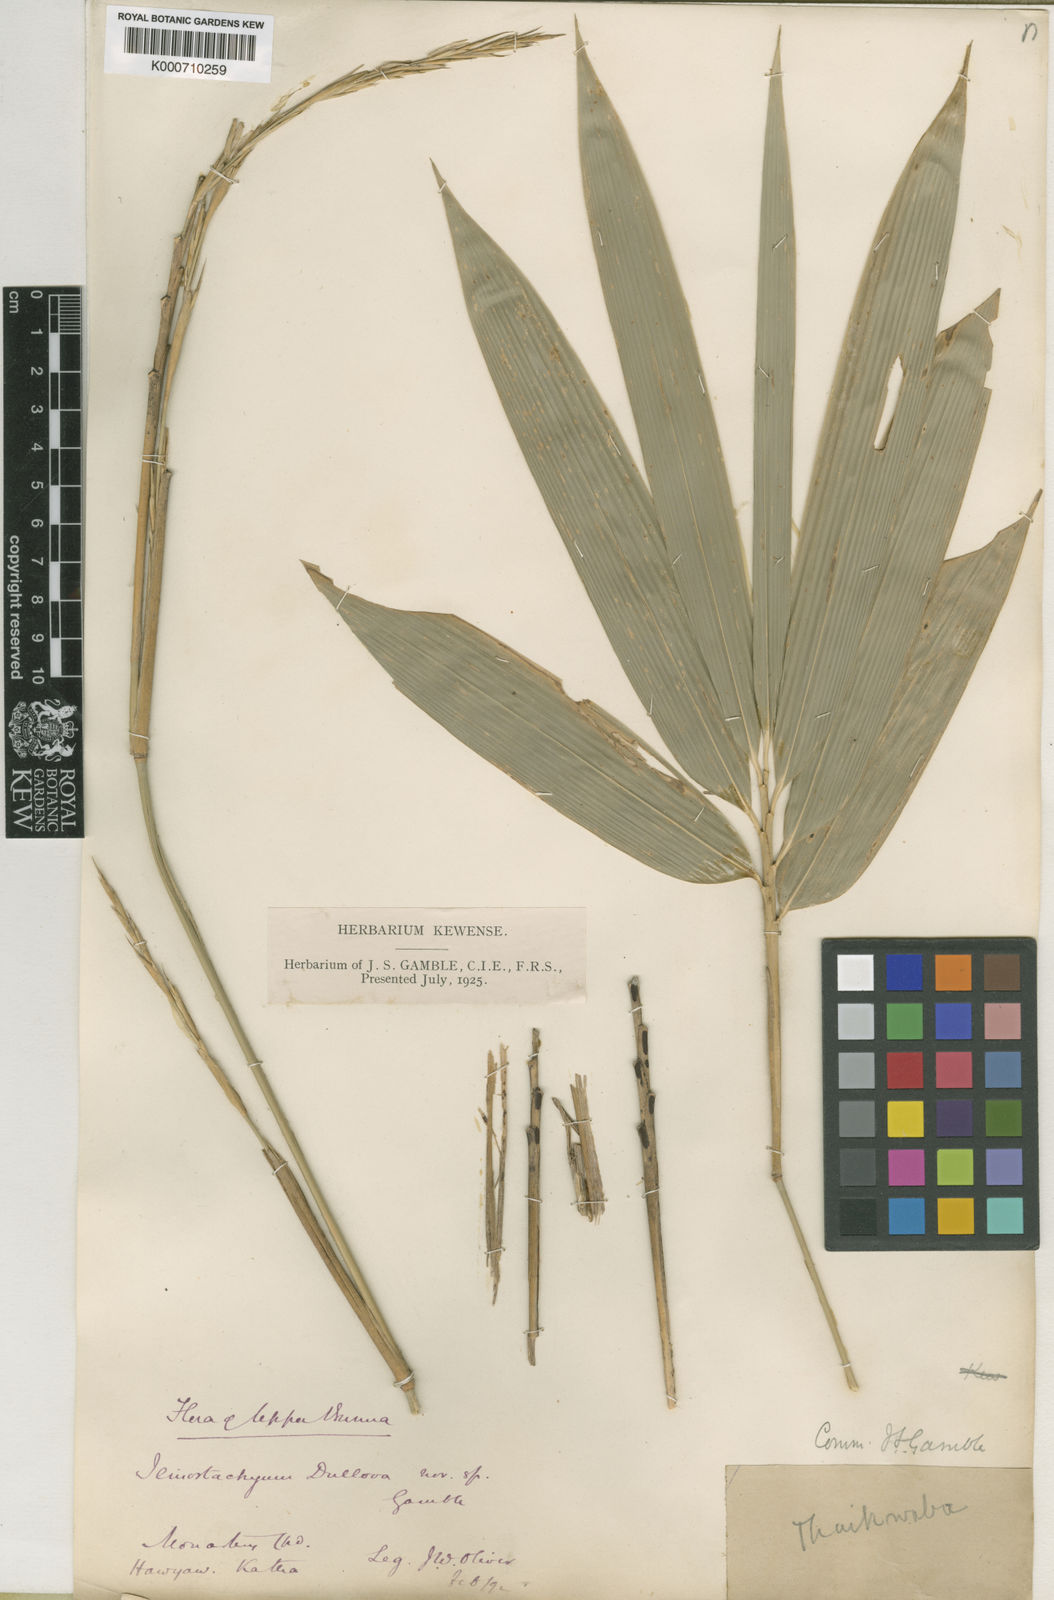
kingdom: Plantae
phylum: Tracheophyta
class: Liliopsida
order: Poales
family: Poaceae
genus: Schizostachyum
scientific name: Schizostachyum dullooa
